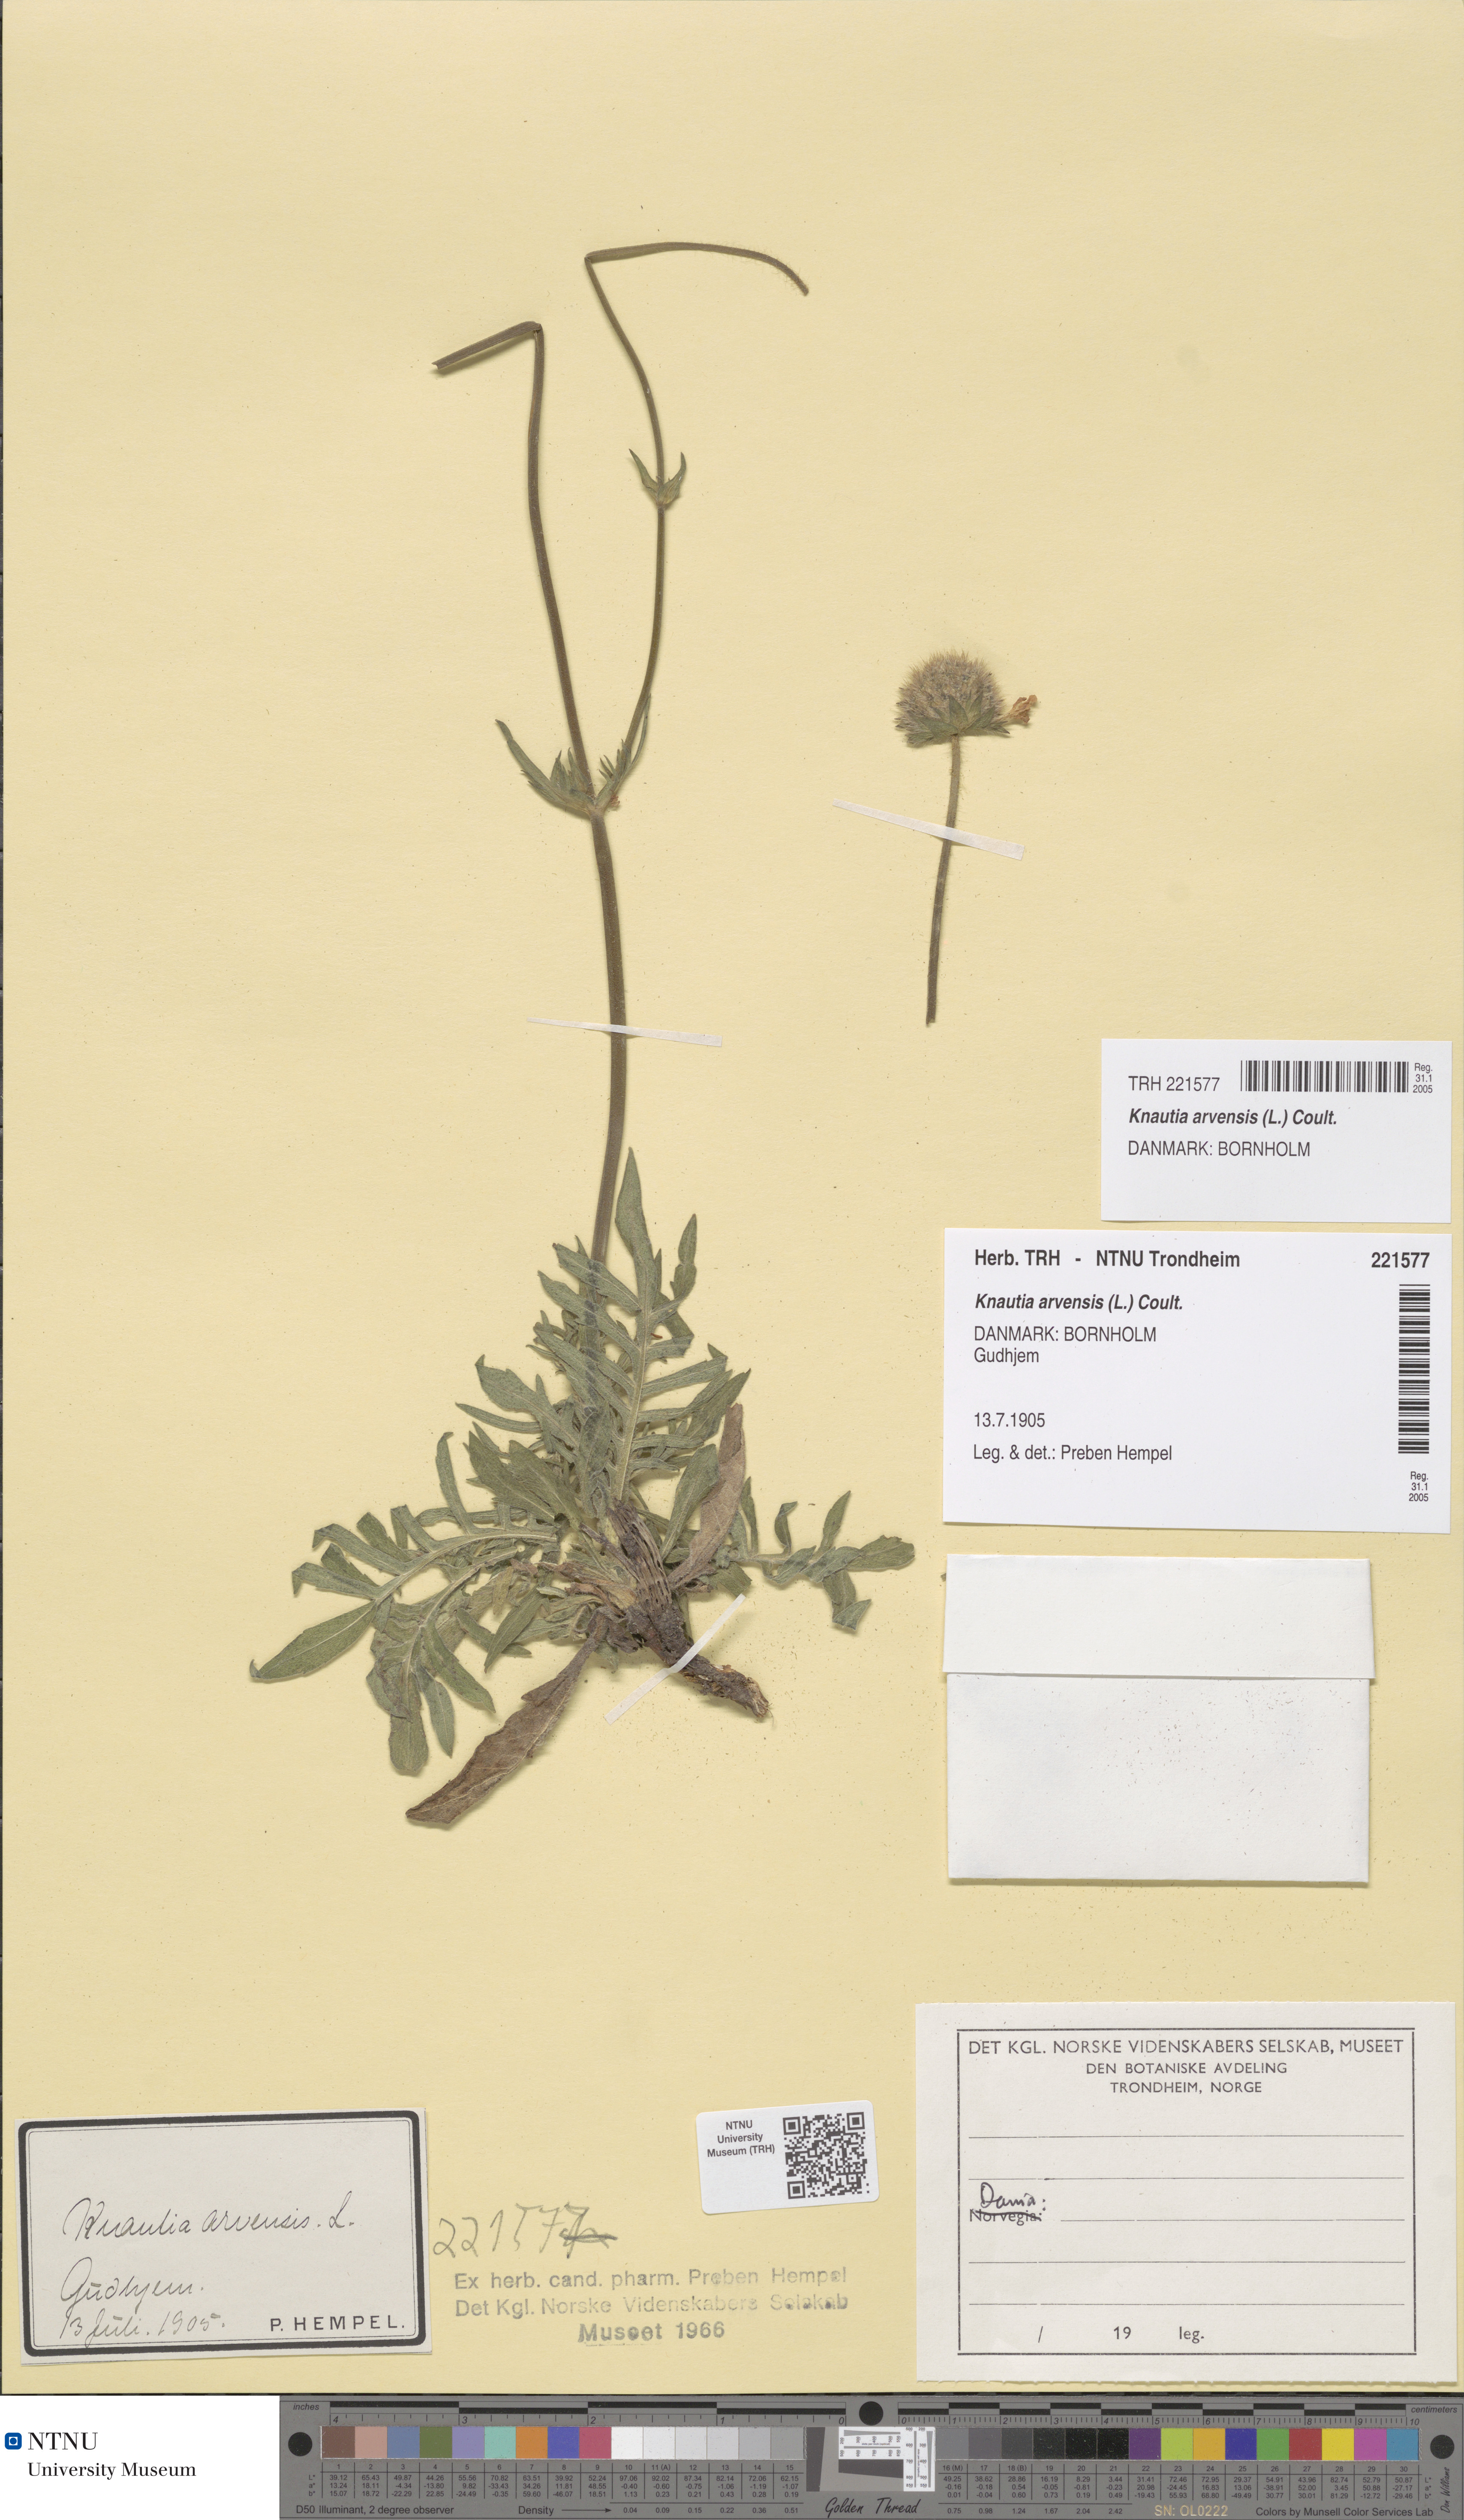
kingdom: Plantae
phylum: Tracheophyta
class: Magnoliopsida
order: Dipsacales
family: Caprifoliaceae
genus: Knautia
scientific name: Knautia arvensis
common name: Field scabiosa
